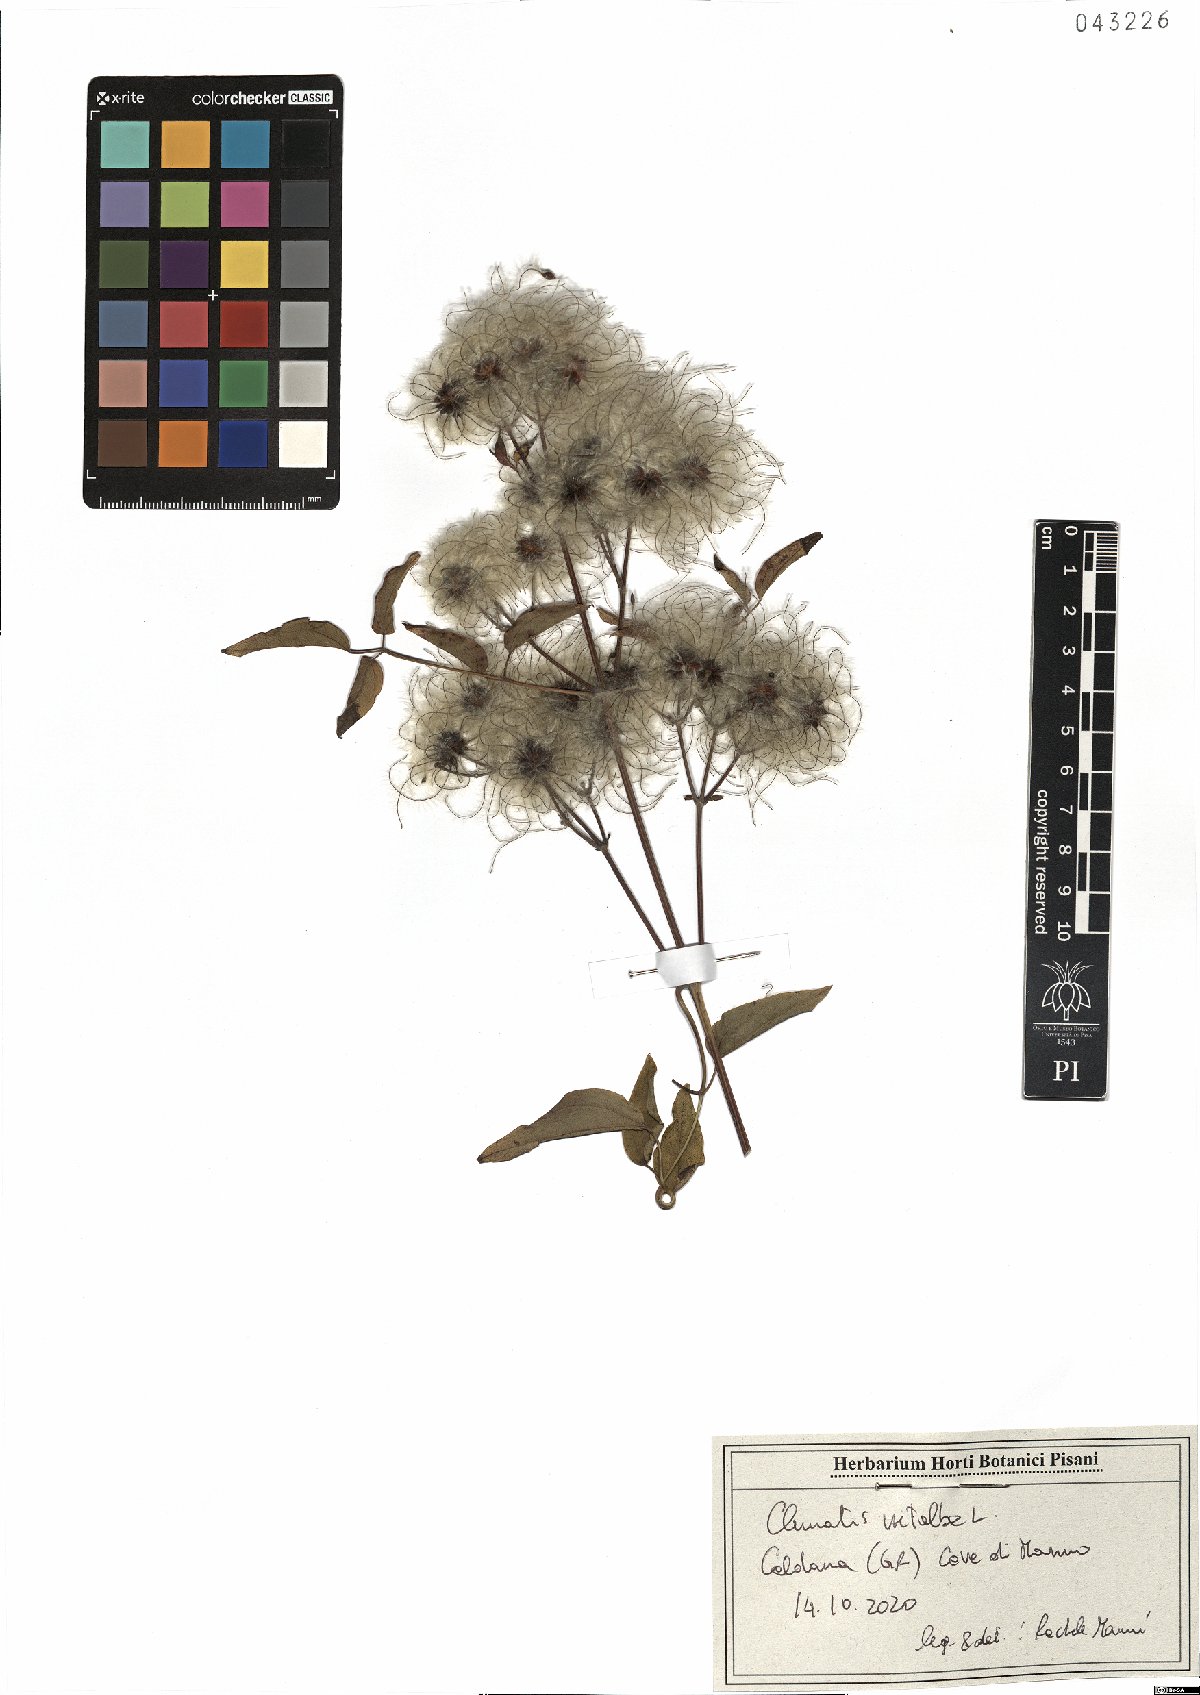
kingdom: Plantae
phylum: Tracheophyta
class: Magnoliopsida
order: Ranunculales
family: Ranunculaceae
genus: Clematis
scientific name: Clematis vitalba
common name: Evergreen clematis
